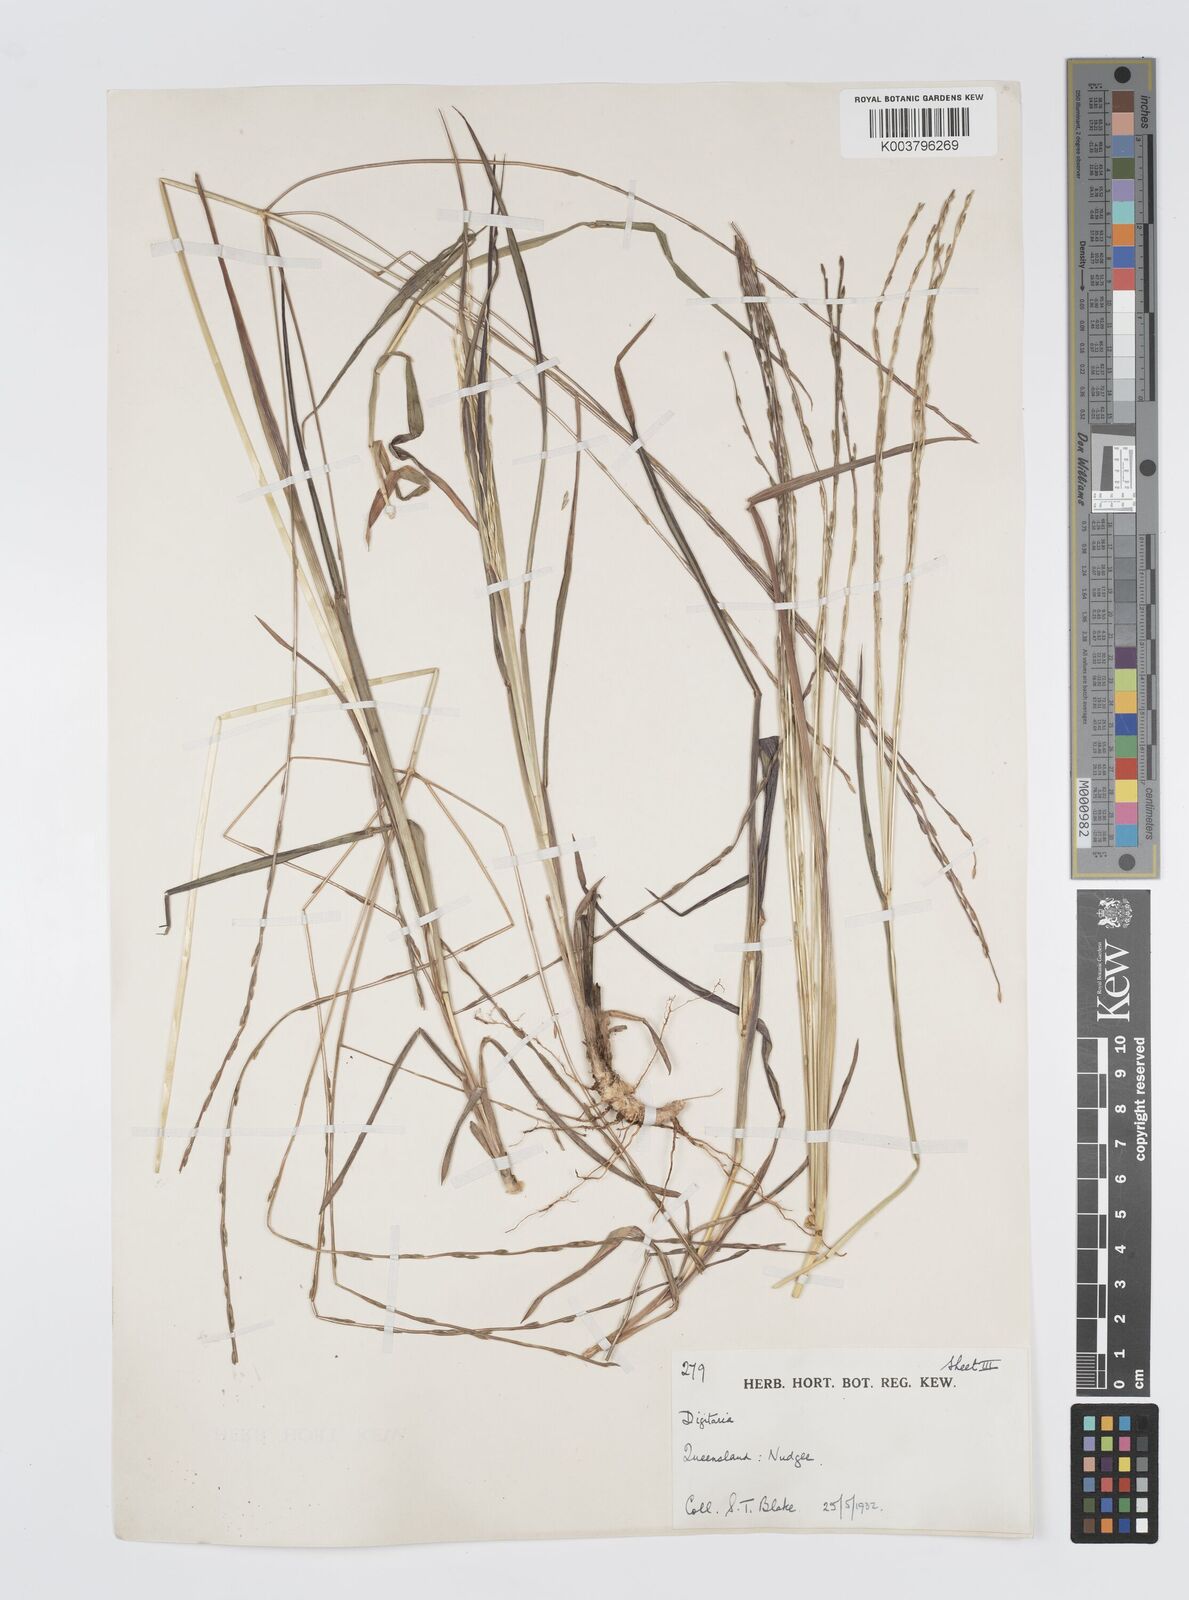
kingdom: Plantae
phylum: Tracheophyta
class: Liliopsida
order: Poales
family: Poaceae
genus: Digitaria
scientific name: Digitaria divaricatissima
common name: Crabgrass
